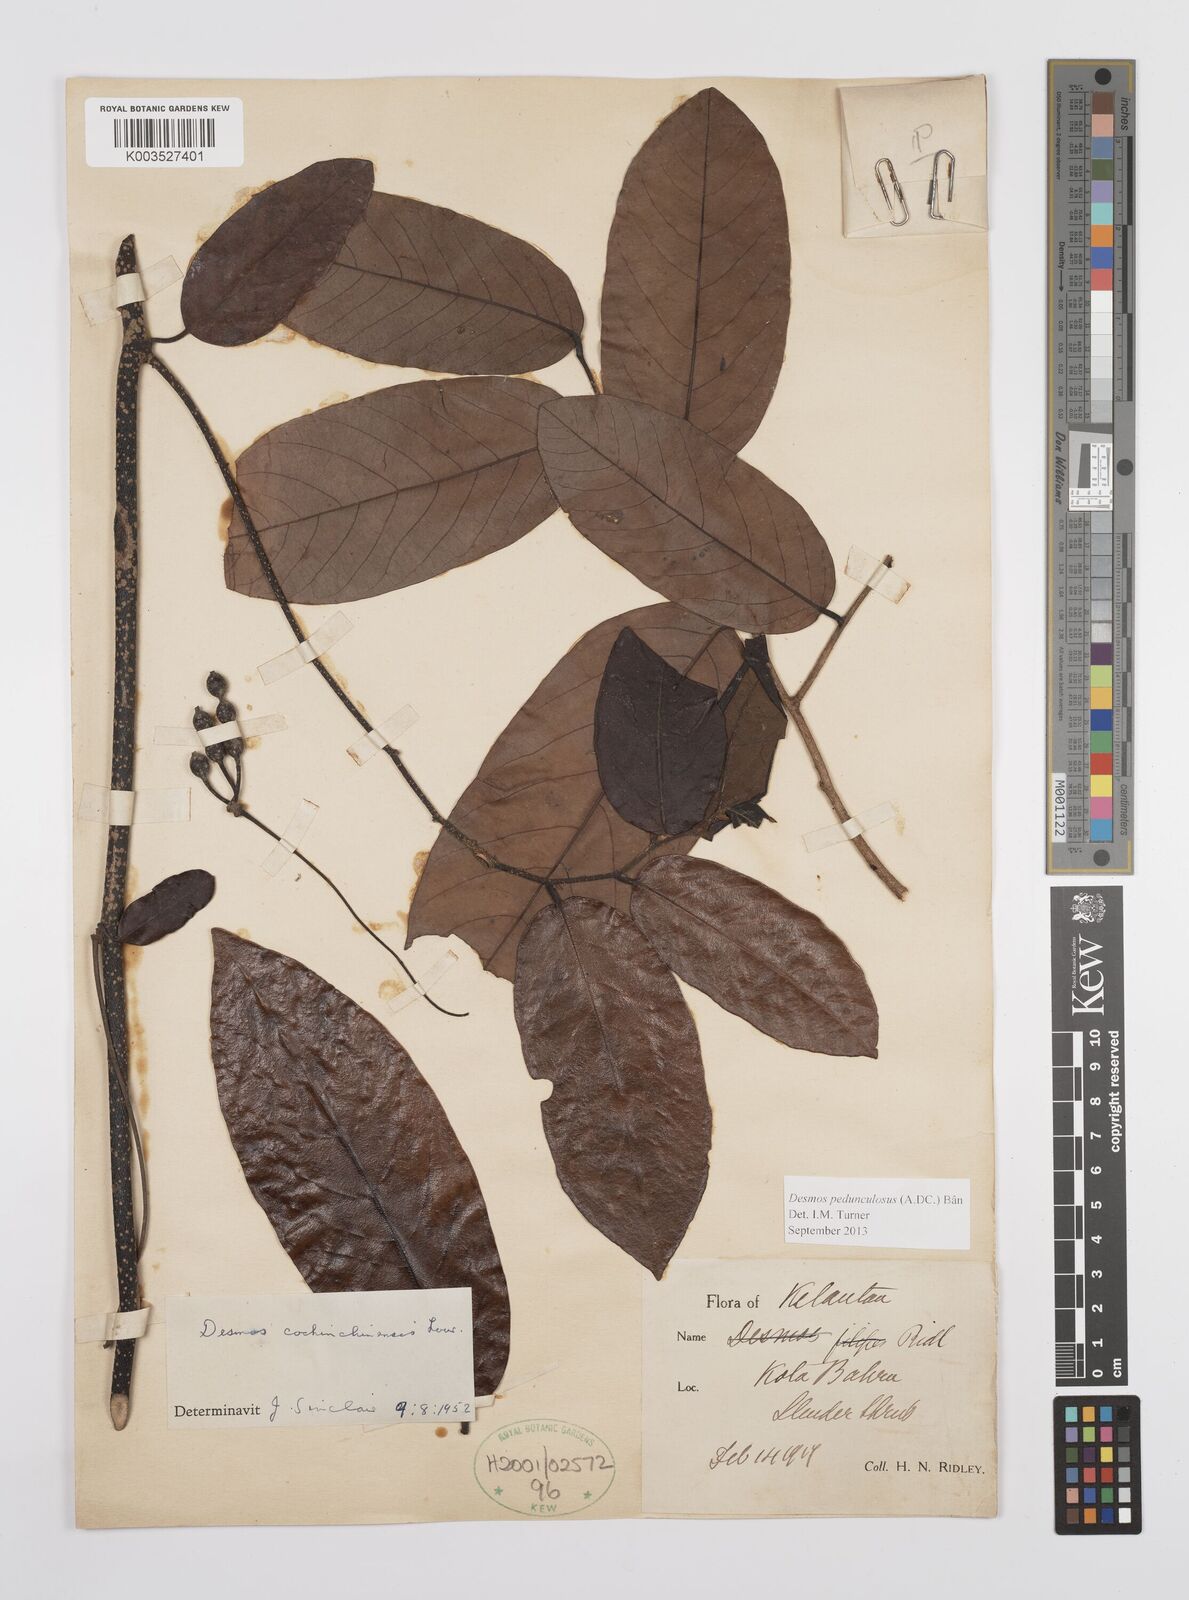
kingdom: Plantae
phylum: Tracheophyta
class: Magnoliopsida
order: Magnoliales
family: Annonaceae
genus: Desmos
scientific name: Desmos cochinchinensis
